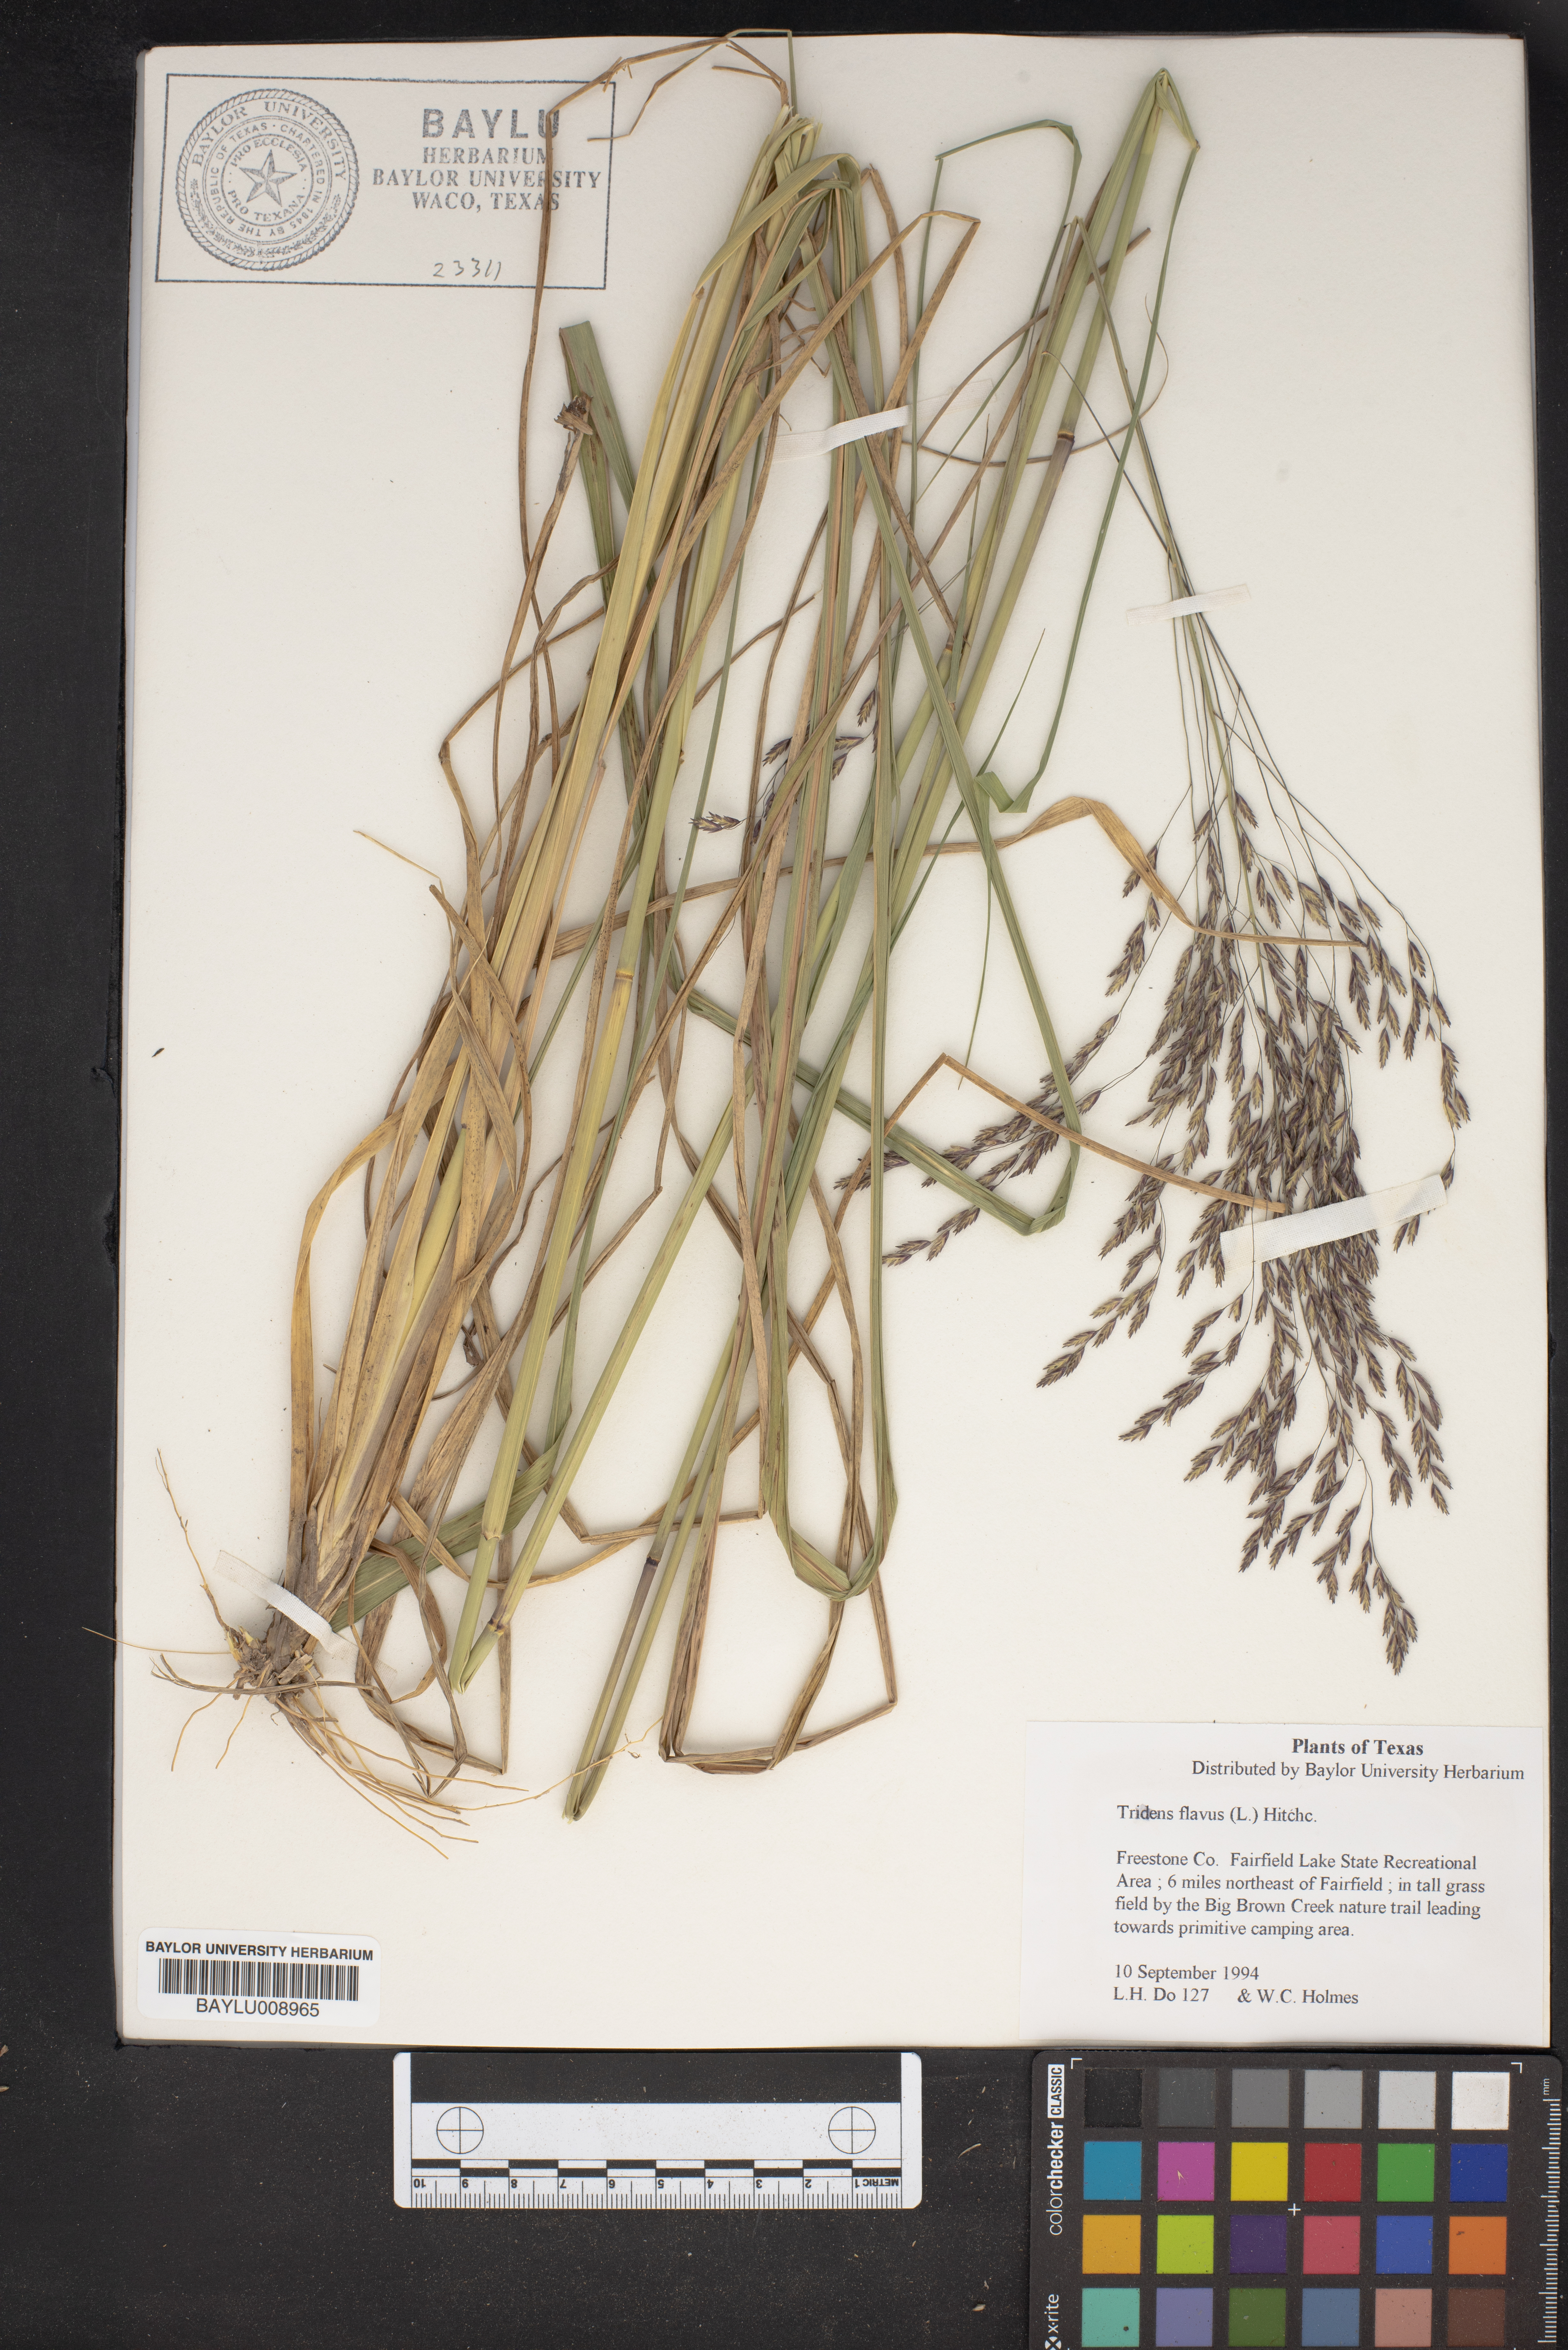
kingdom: Plantae
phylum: Tracheophyta
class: Liliopsida
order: Poales
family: Poaceae
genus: Tridens
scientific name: Tridens flavus
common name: Purpletop
